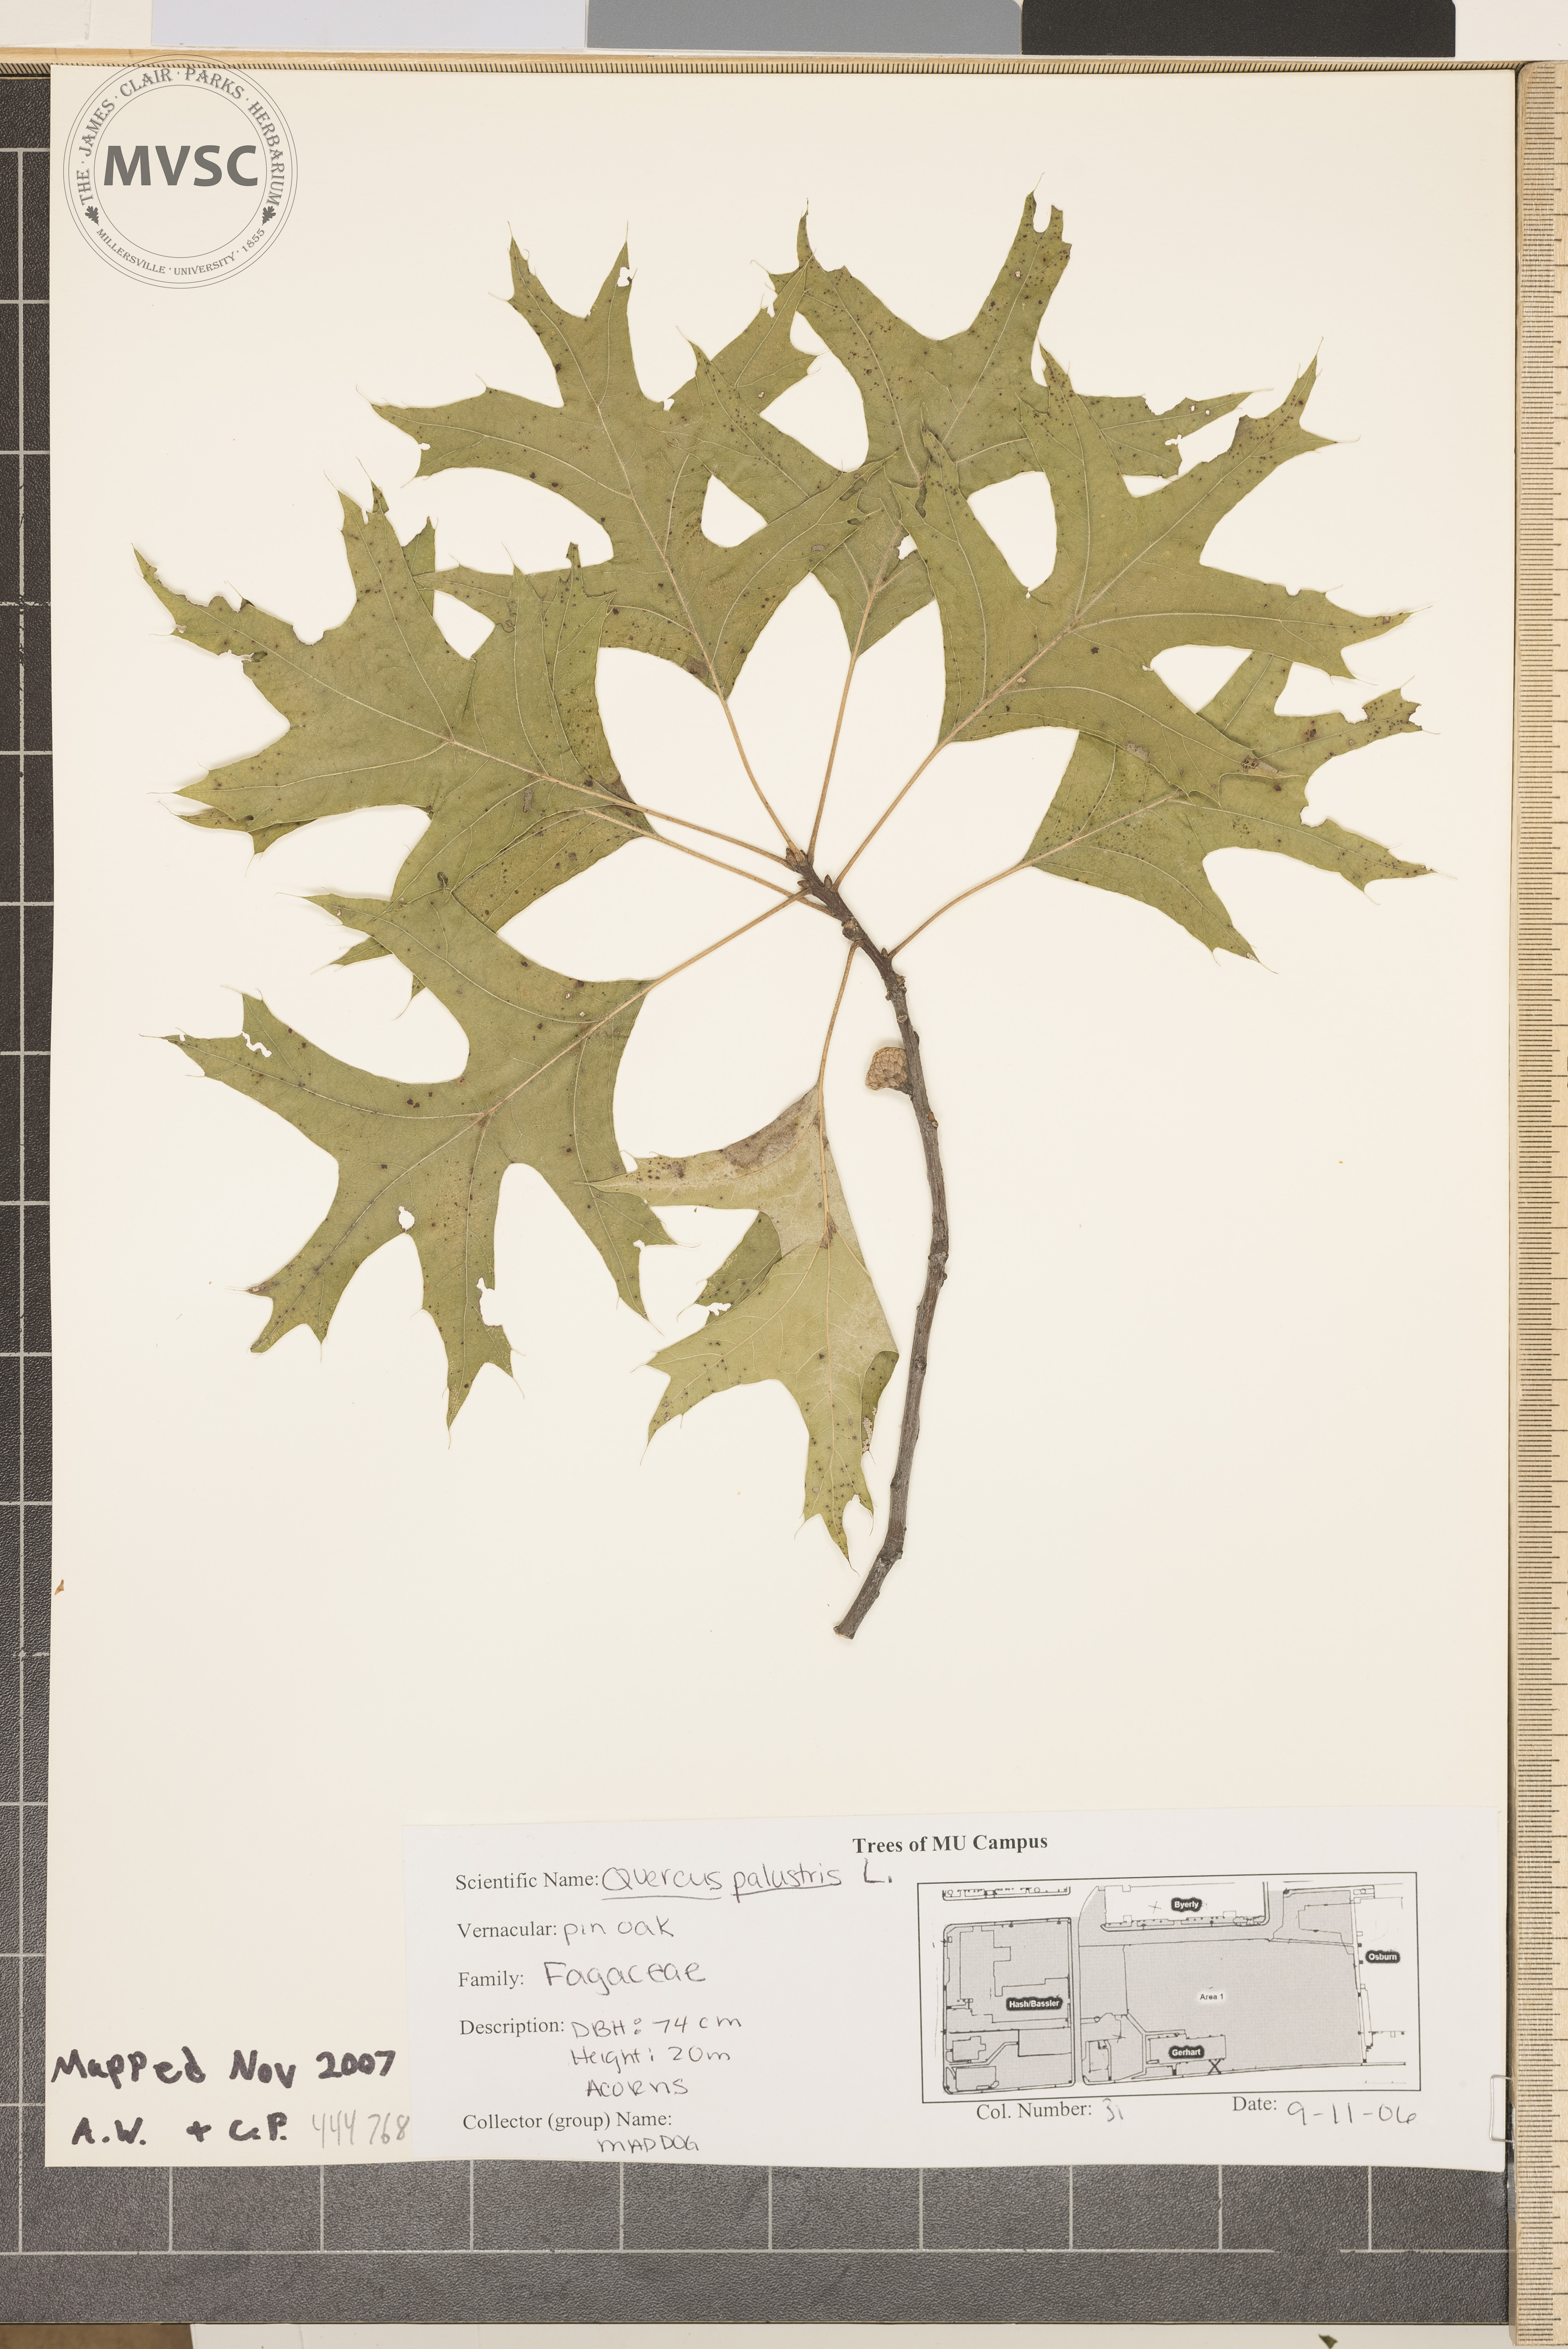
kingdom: Plantae
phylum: Tracheophyta
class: Magnoliopsida
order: Fagales
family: Fagaceae
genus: Quercus
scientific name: Quercus palustris
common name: Pin oak
